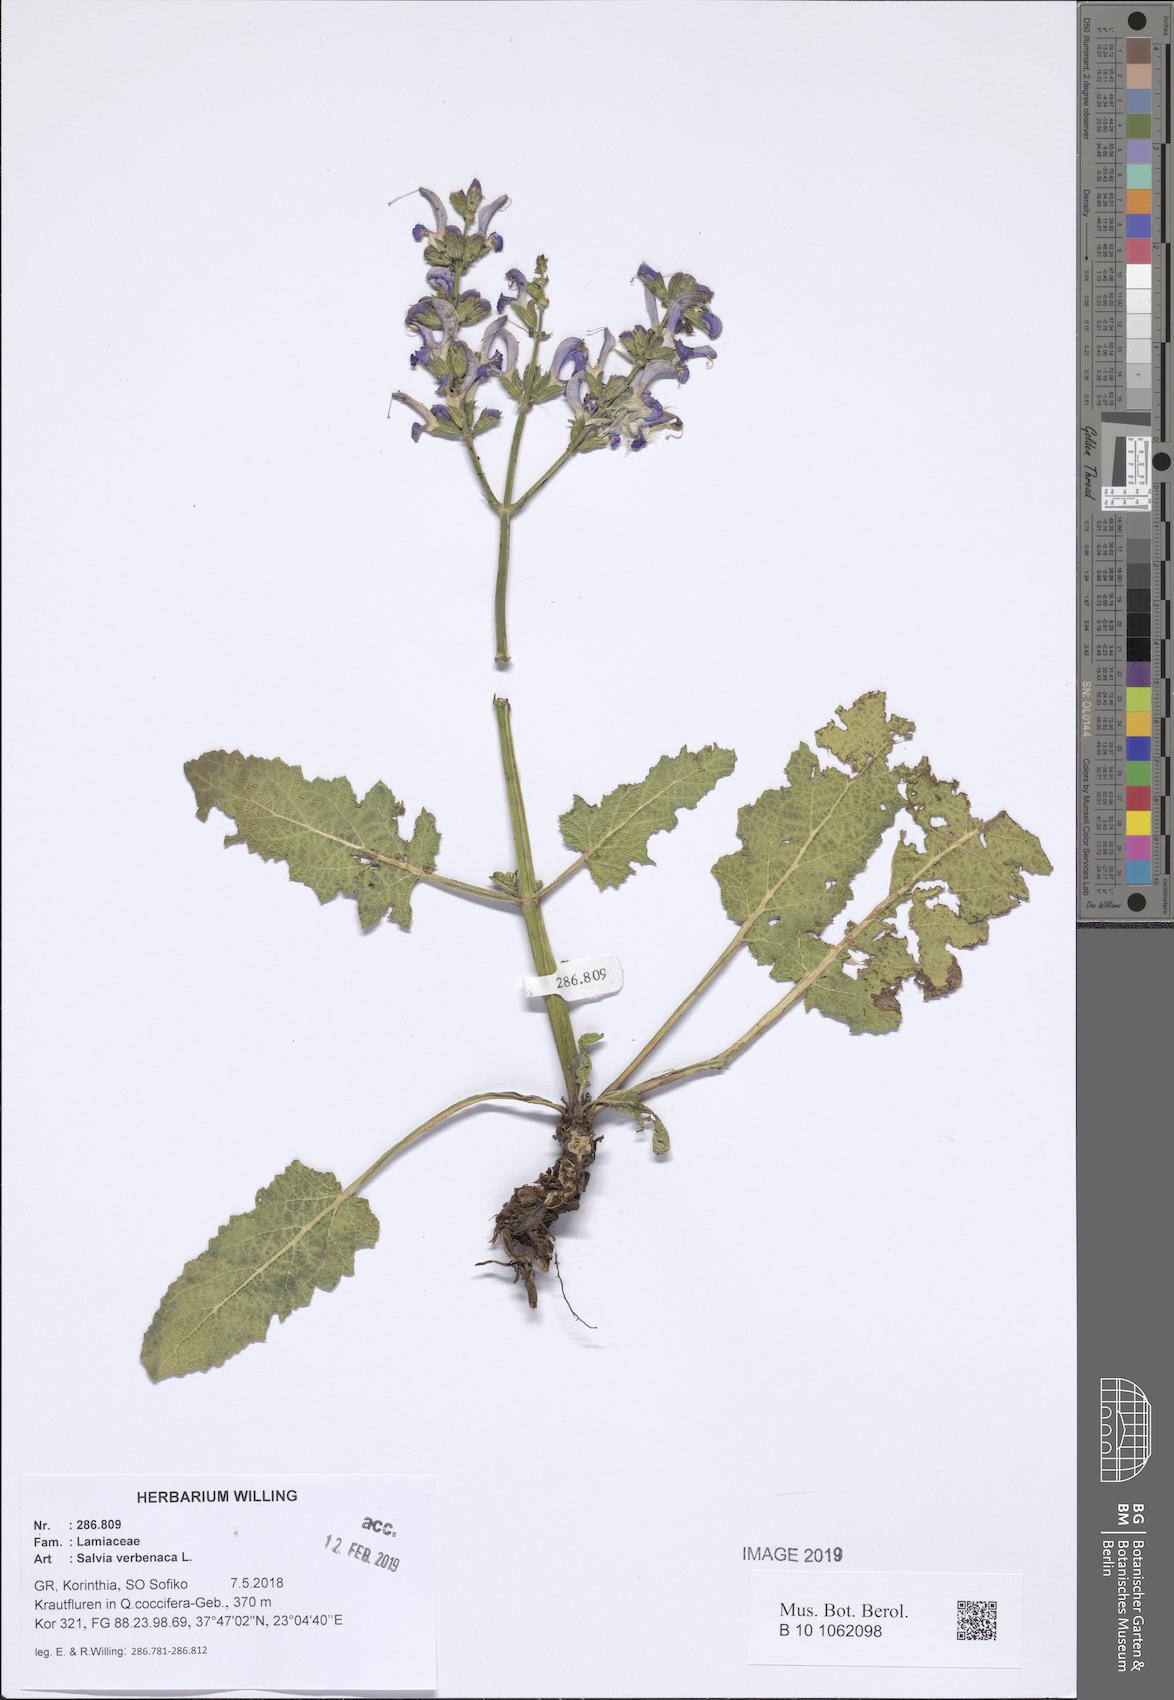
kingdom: Plantae
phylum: Tracheophyta
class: Magnoliopsida
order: Lamiales
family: Lamiaceae
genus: Salvia
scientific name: Salvia verbenaca
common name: Wild clary
